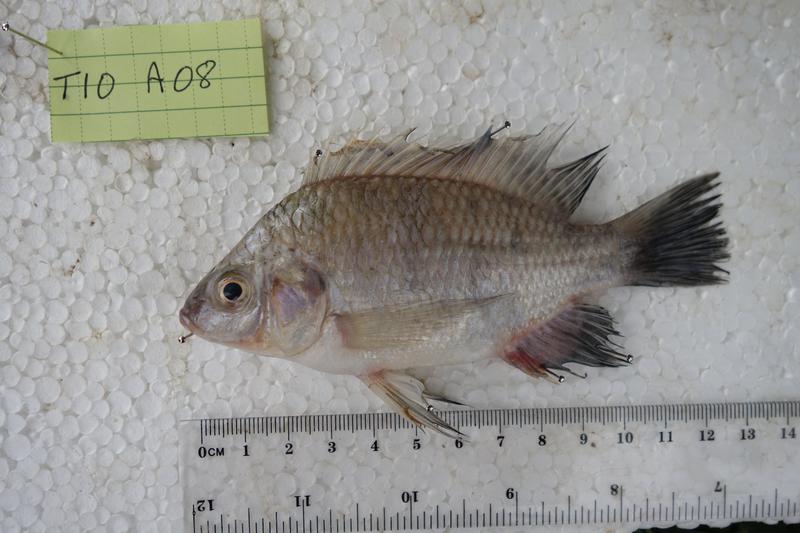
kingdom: Animalia
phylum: Chordata
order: Perciformes
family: Cichlidae
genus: Oreochromis
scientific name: Oreochromis rukwaensis
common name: Lake rukwa tilapia
